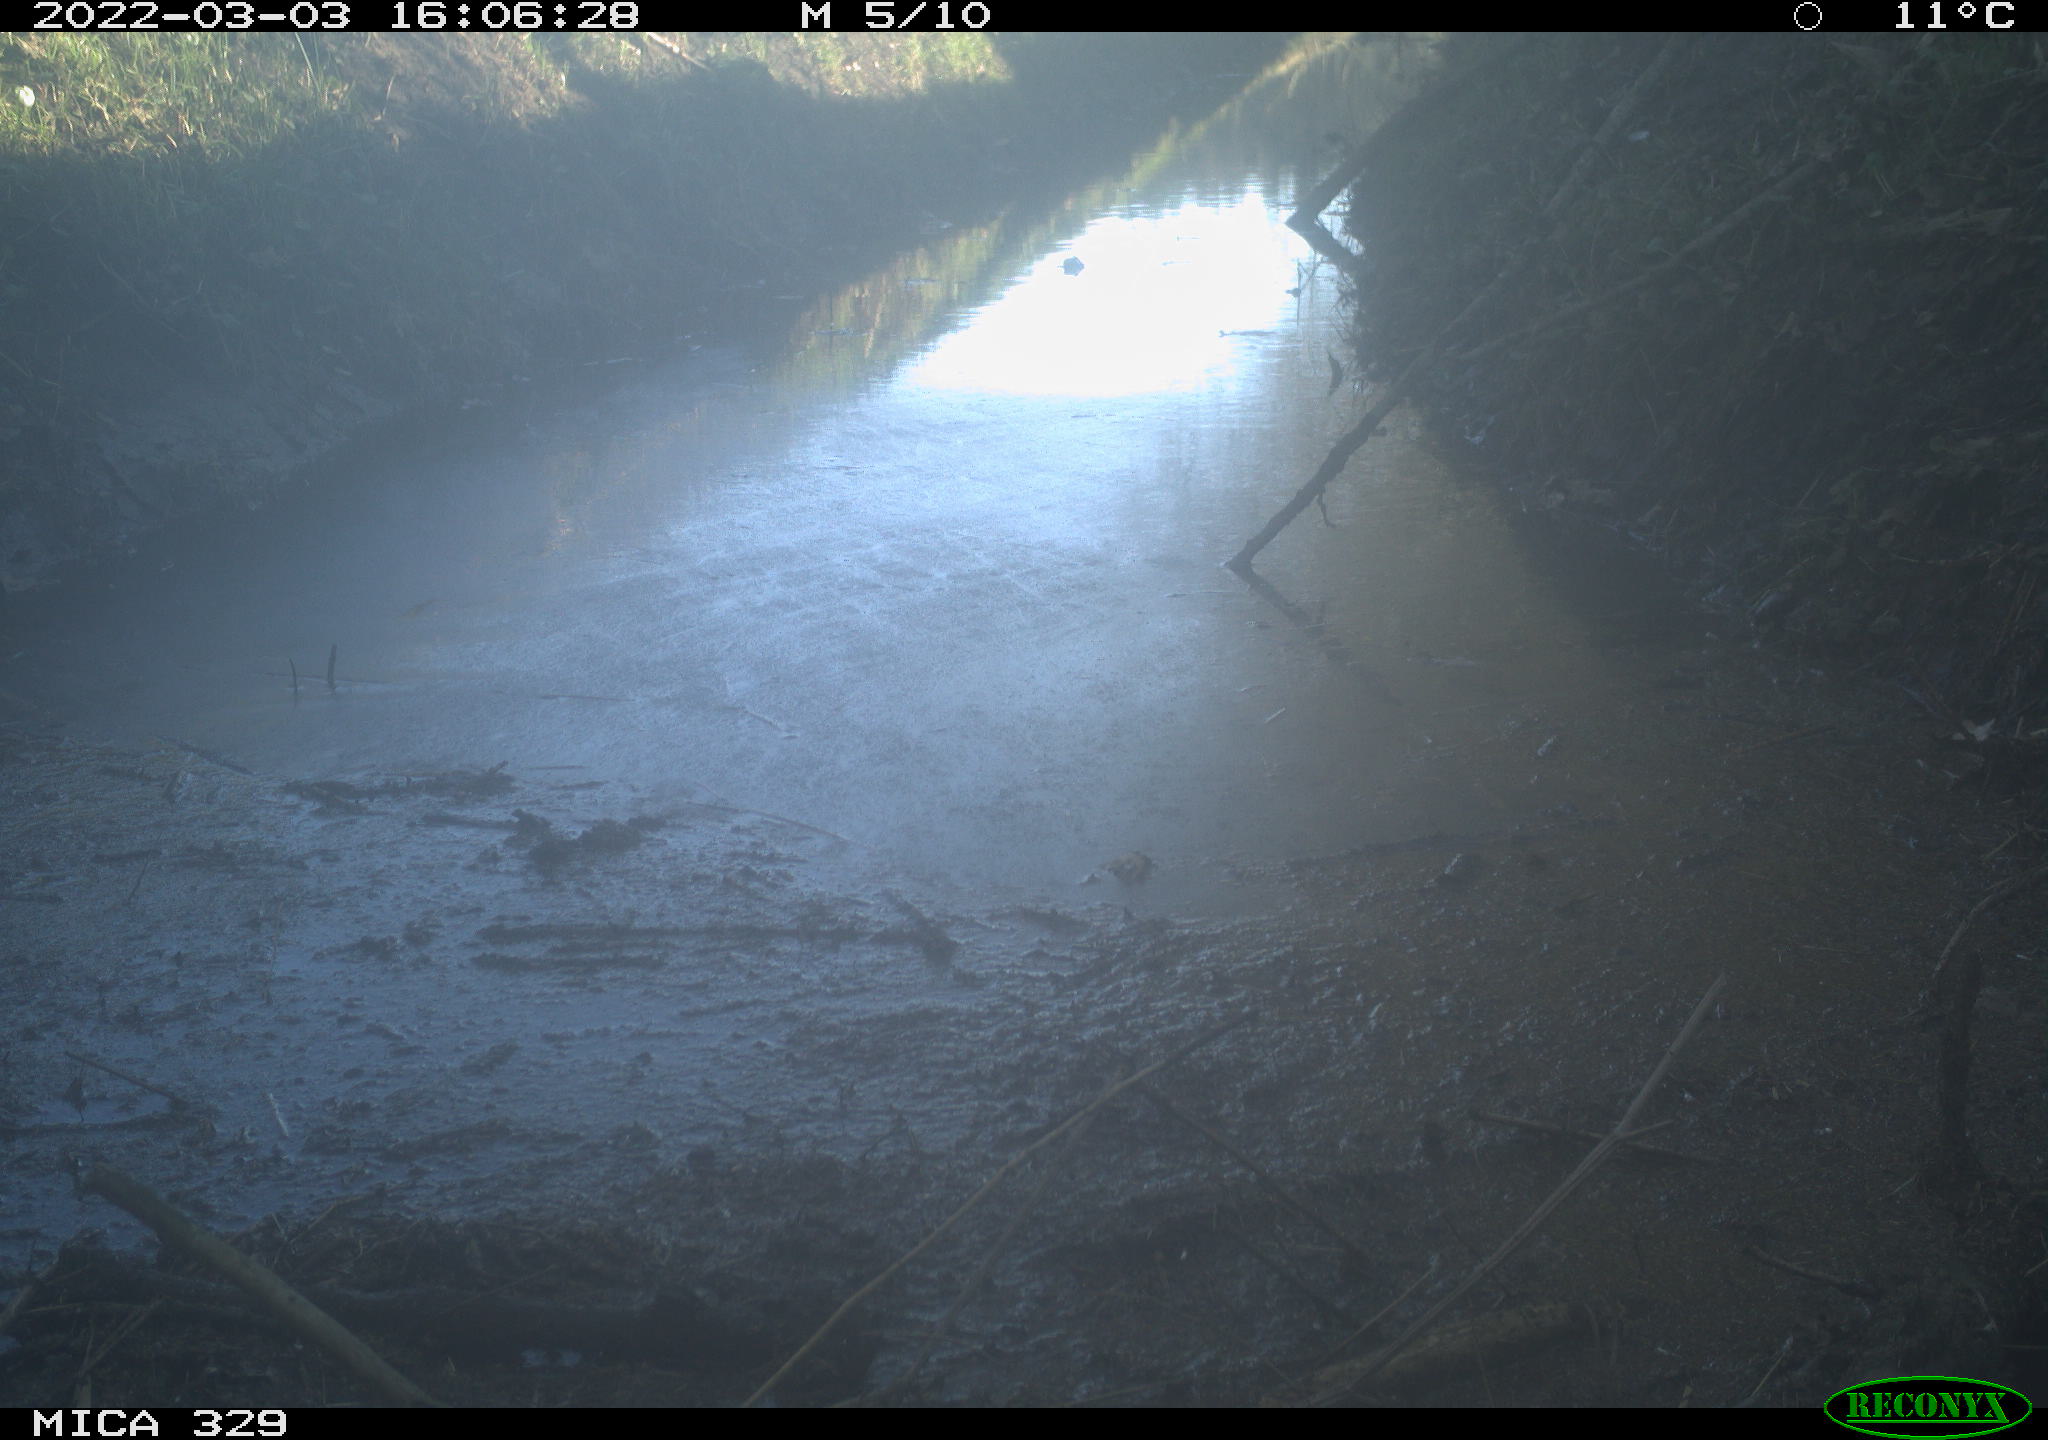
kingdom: Animalia
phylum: Chordata
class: Aves
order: Passeriformes
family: Fringillidae
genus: Fringilla
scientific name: Fringilla coelebs
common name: Common chaffinch
